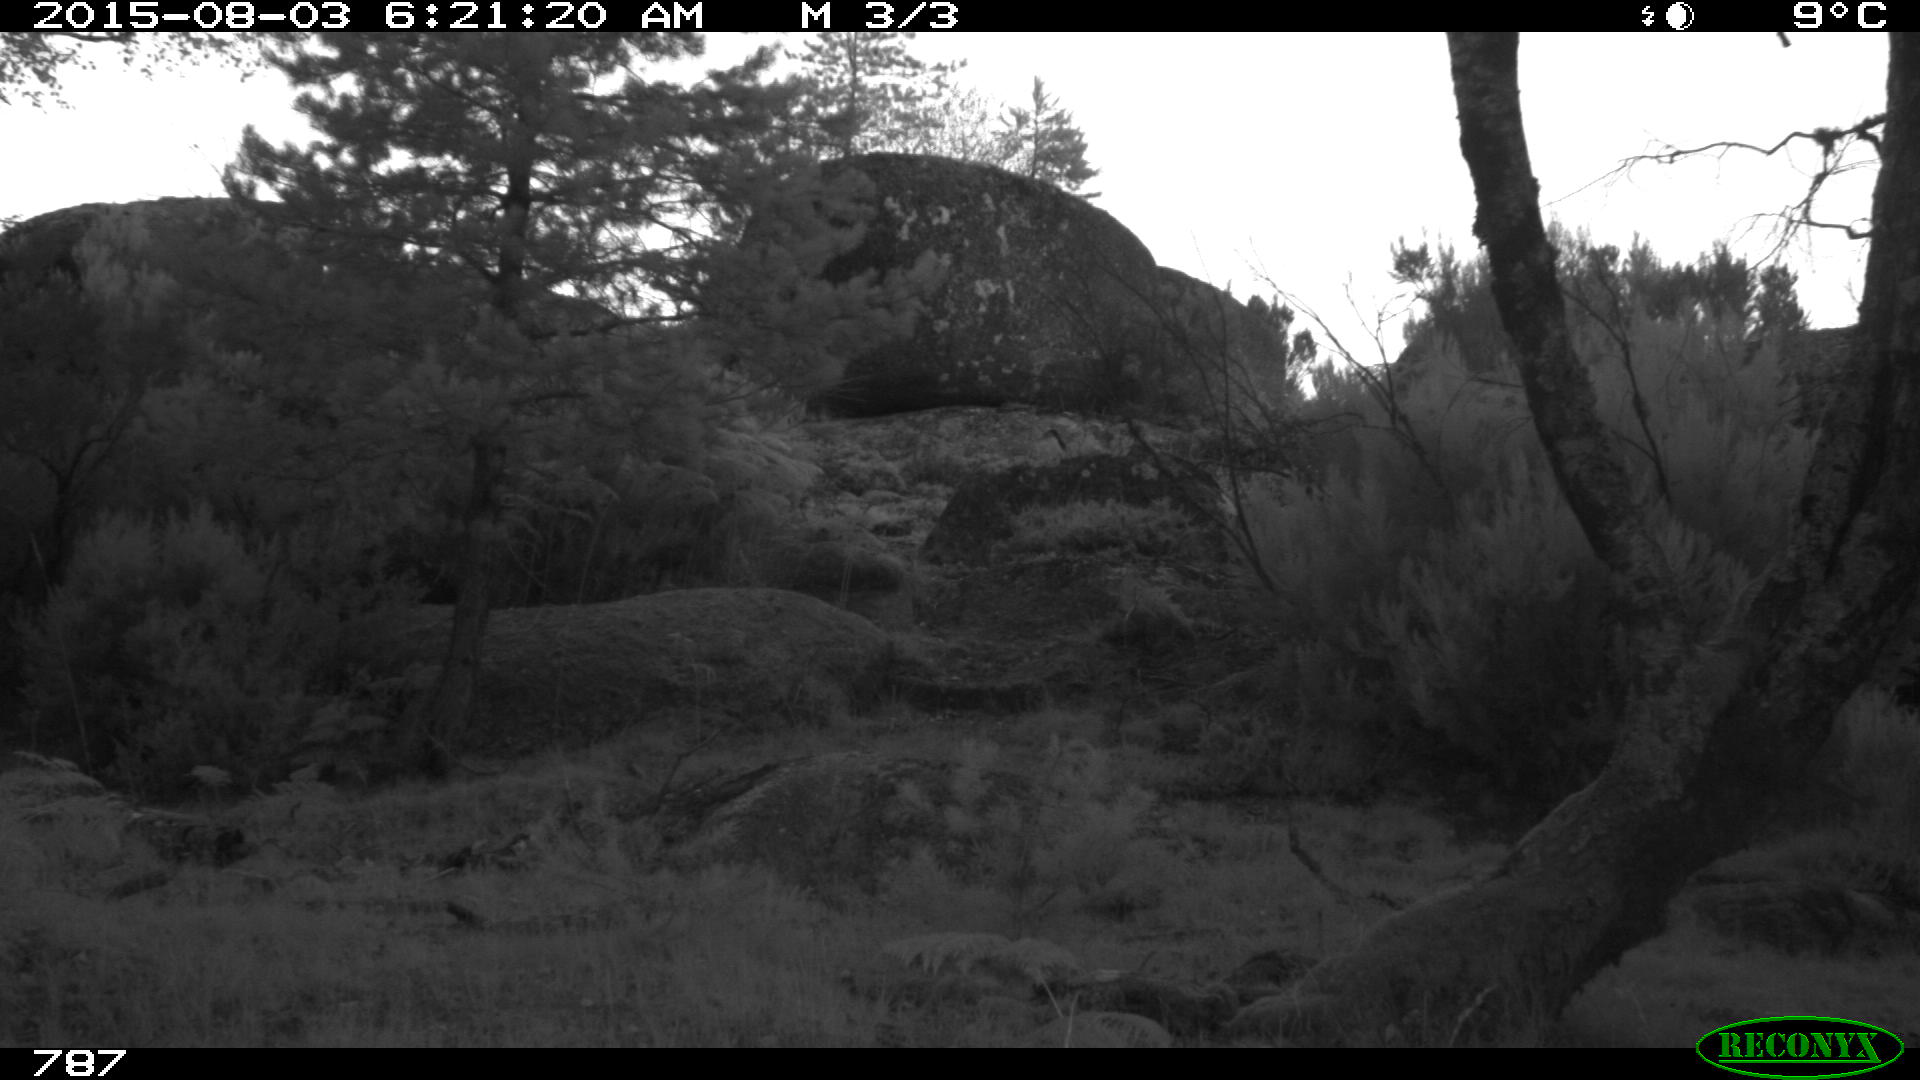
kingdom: Animalia
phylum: Chordata
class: Mammalia
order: Artiodactyla
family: Cervidae
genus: Capreolus
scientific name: Capreolus capreolus
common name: Western roe deer
